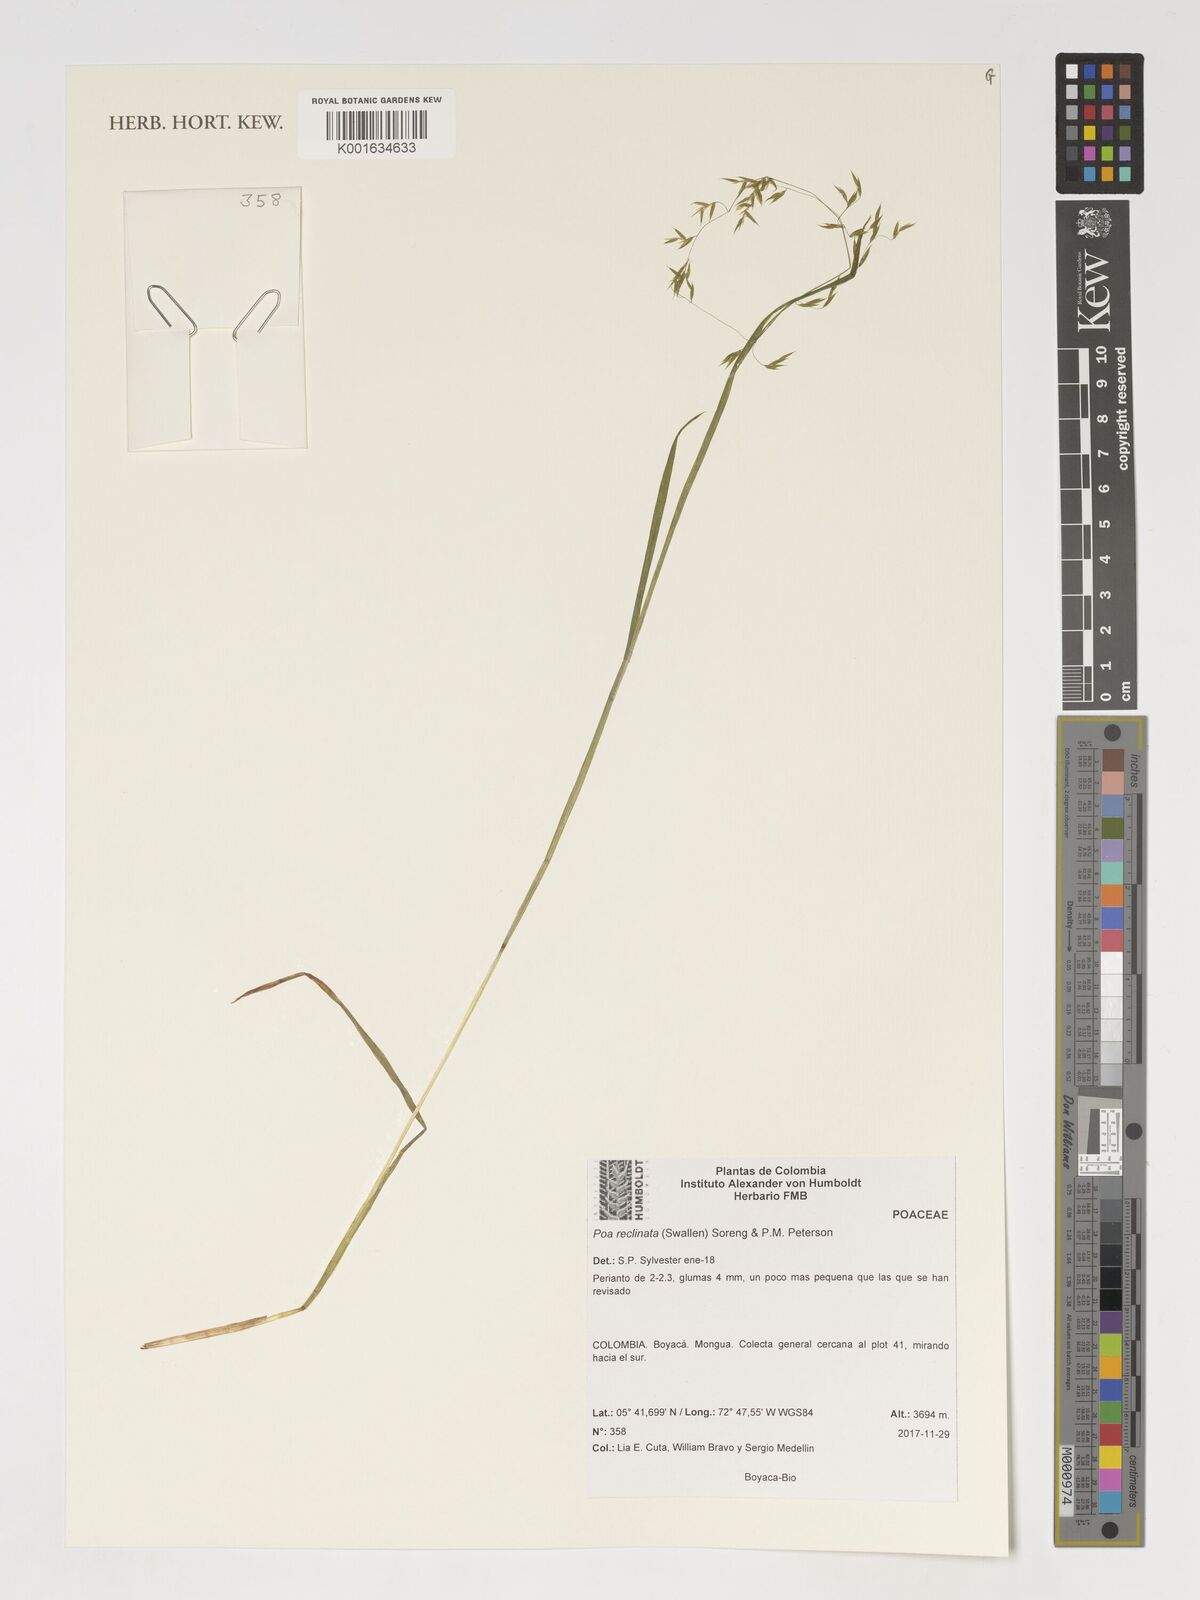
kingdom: Plantae
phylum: Tracheophyta
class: Liliopsida
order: Poales
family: Poaceae
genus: Poa
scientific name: Poa reclinata
